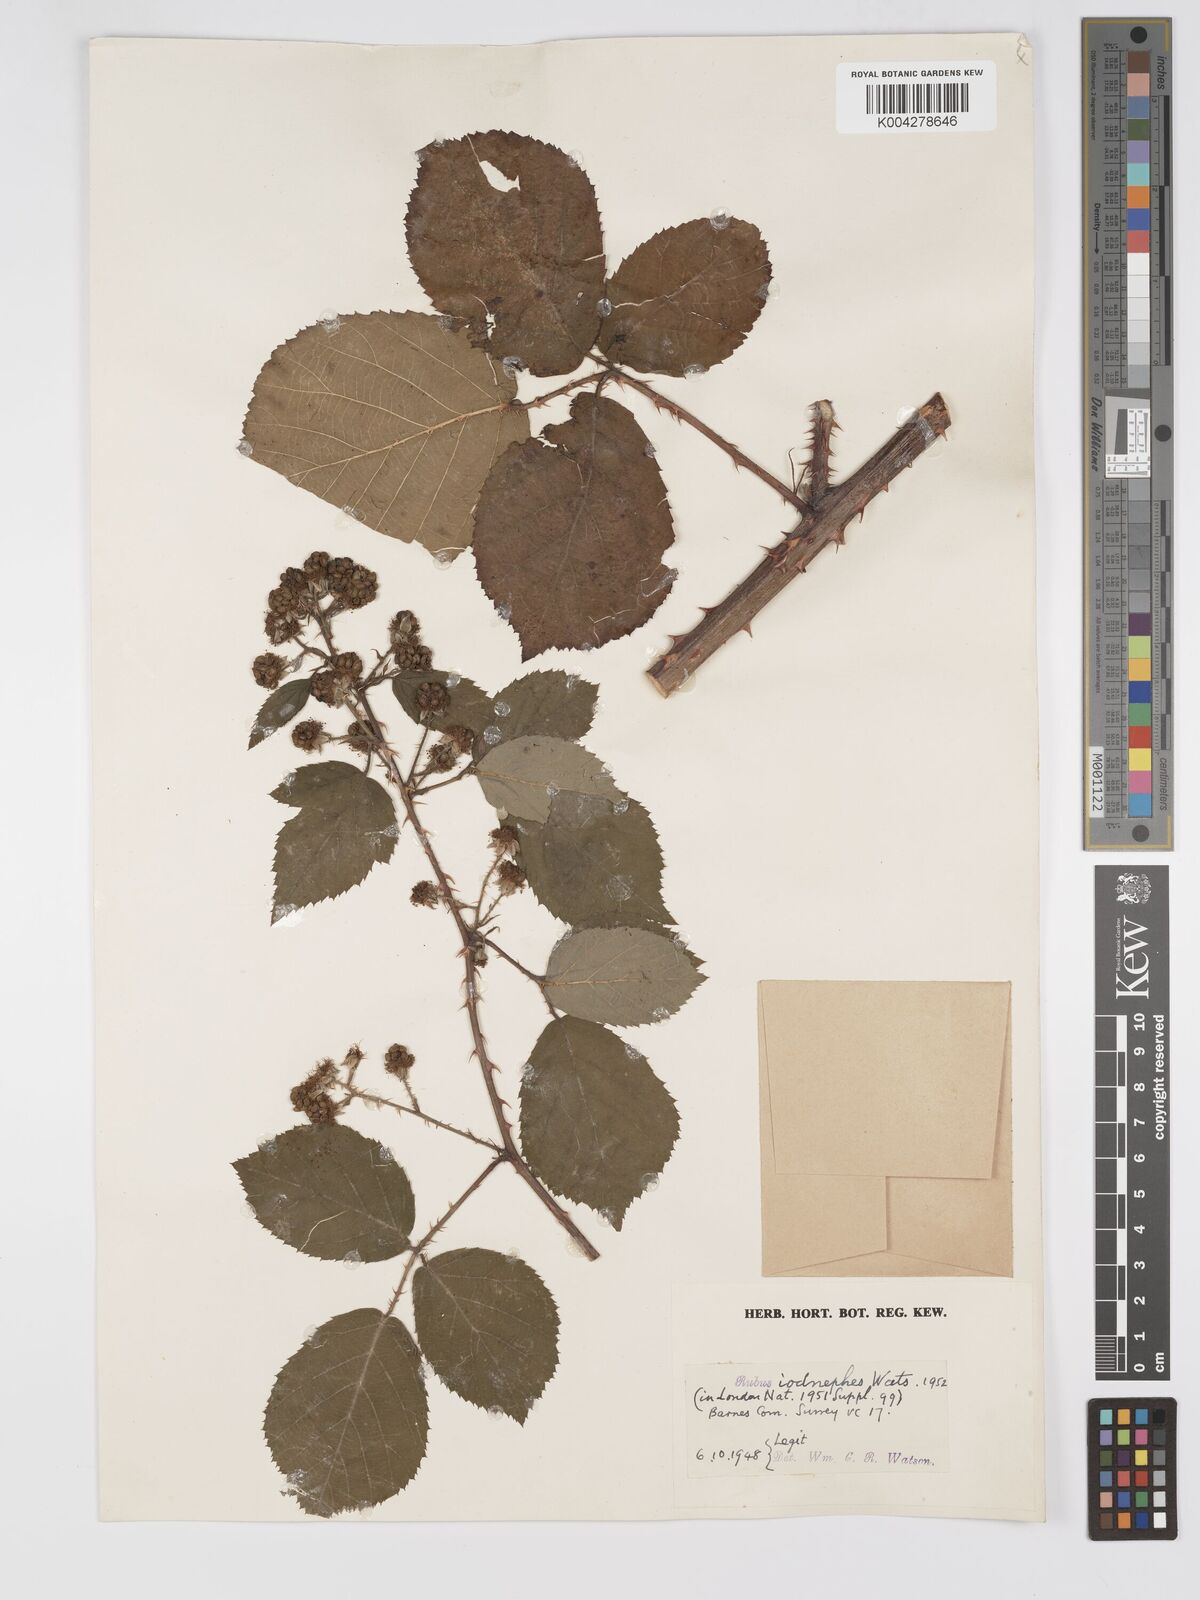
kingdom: Plantae
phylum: Tracheophyta
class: Magnoliopsida
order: Rosales
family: Rosaceae
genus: Rubus
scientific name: Rubus pictorum
